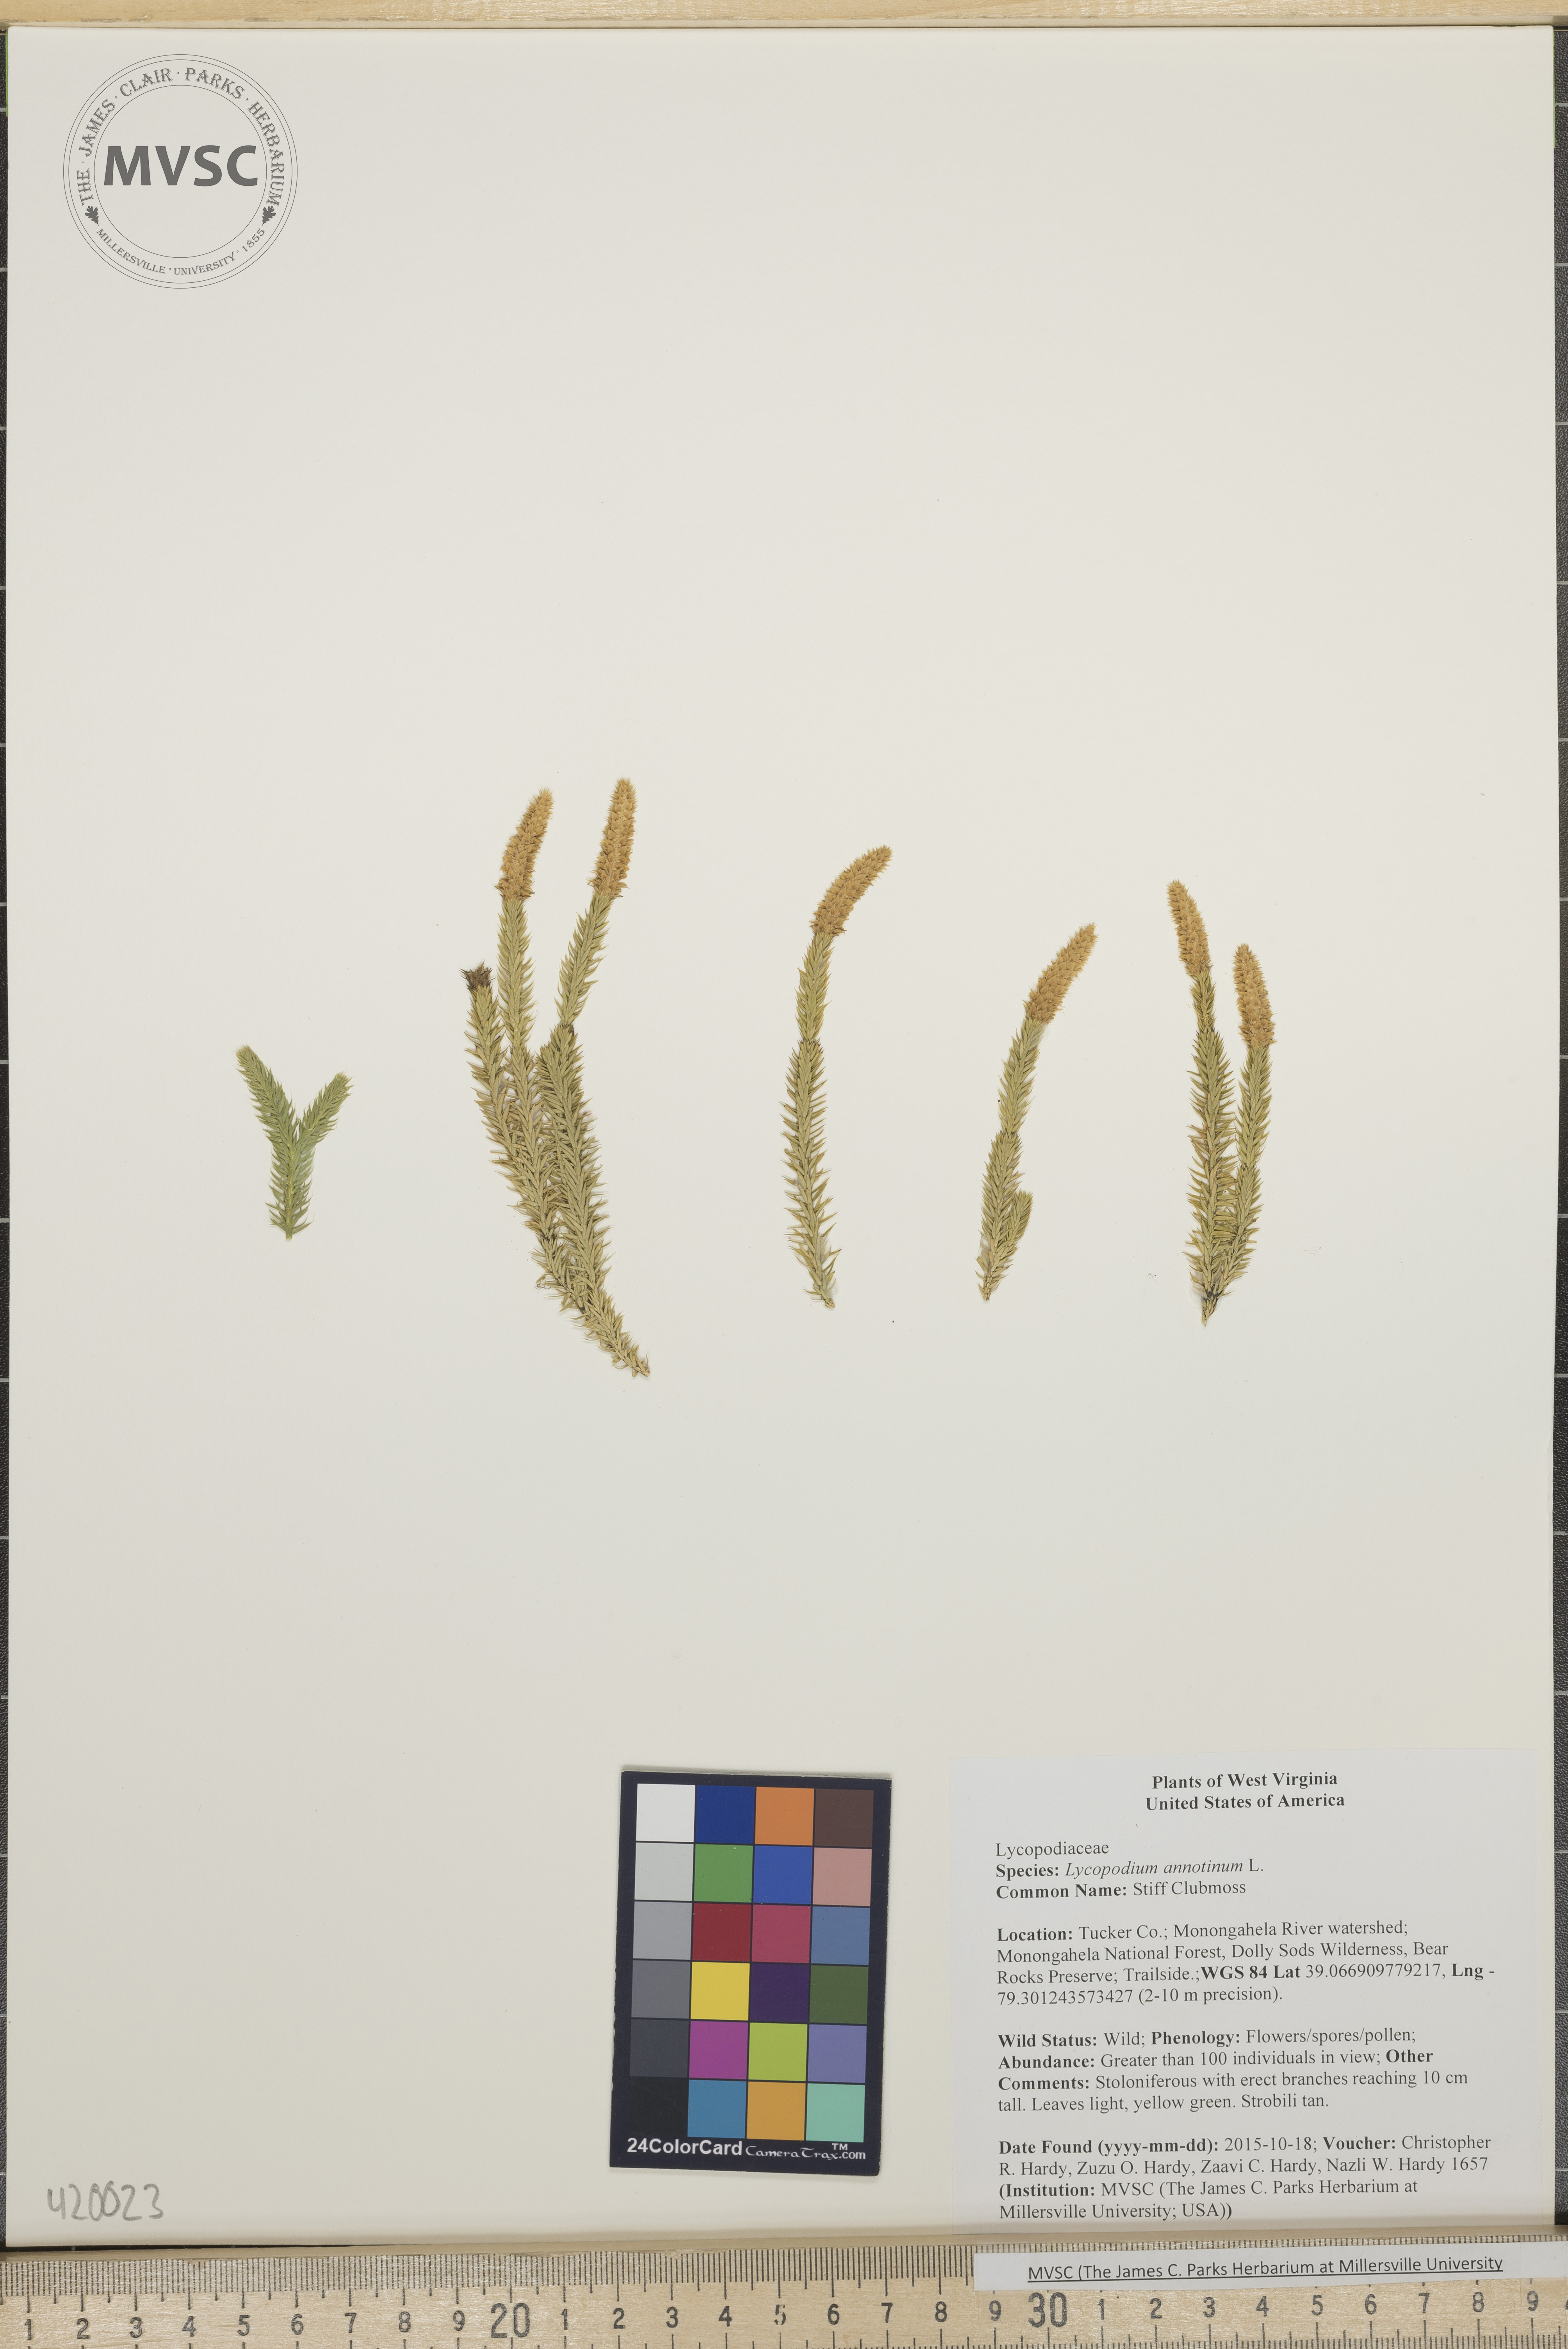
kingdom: Plantae
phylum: Tracheophyta
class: Lycopodiopsida
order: Lycopodiales
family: Lycopodiaceae
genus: Spinulum
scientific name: Spinulum annotinum
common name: Stiff Clubmoss
